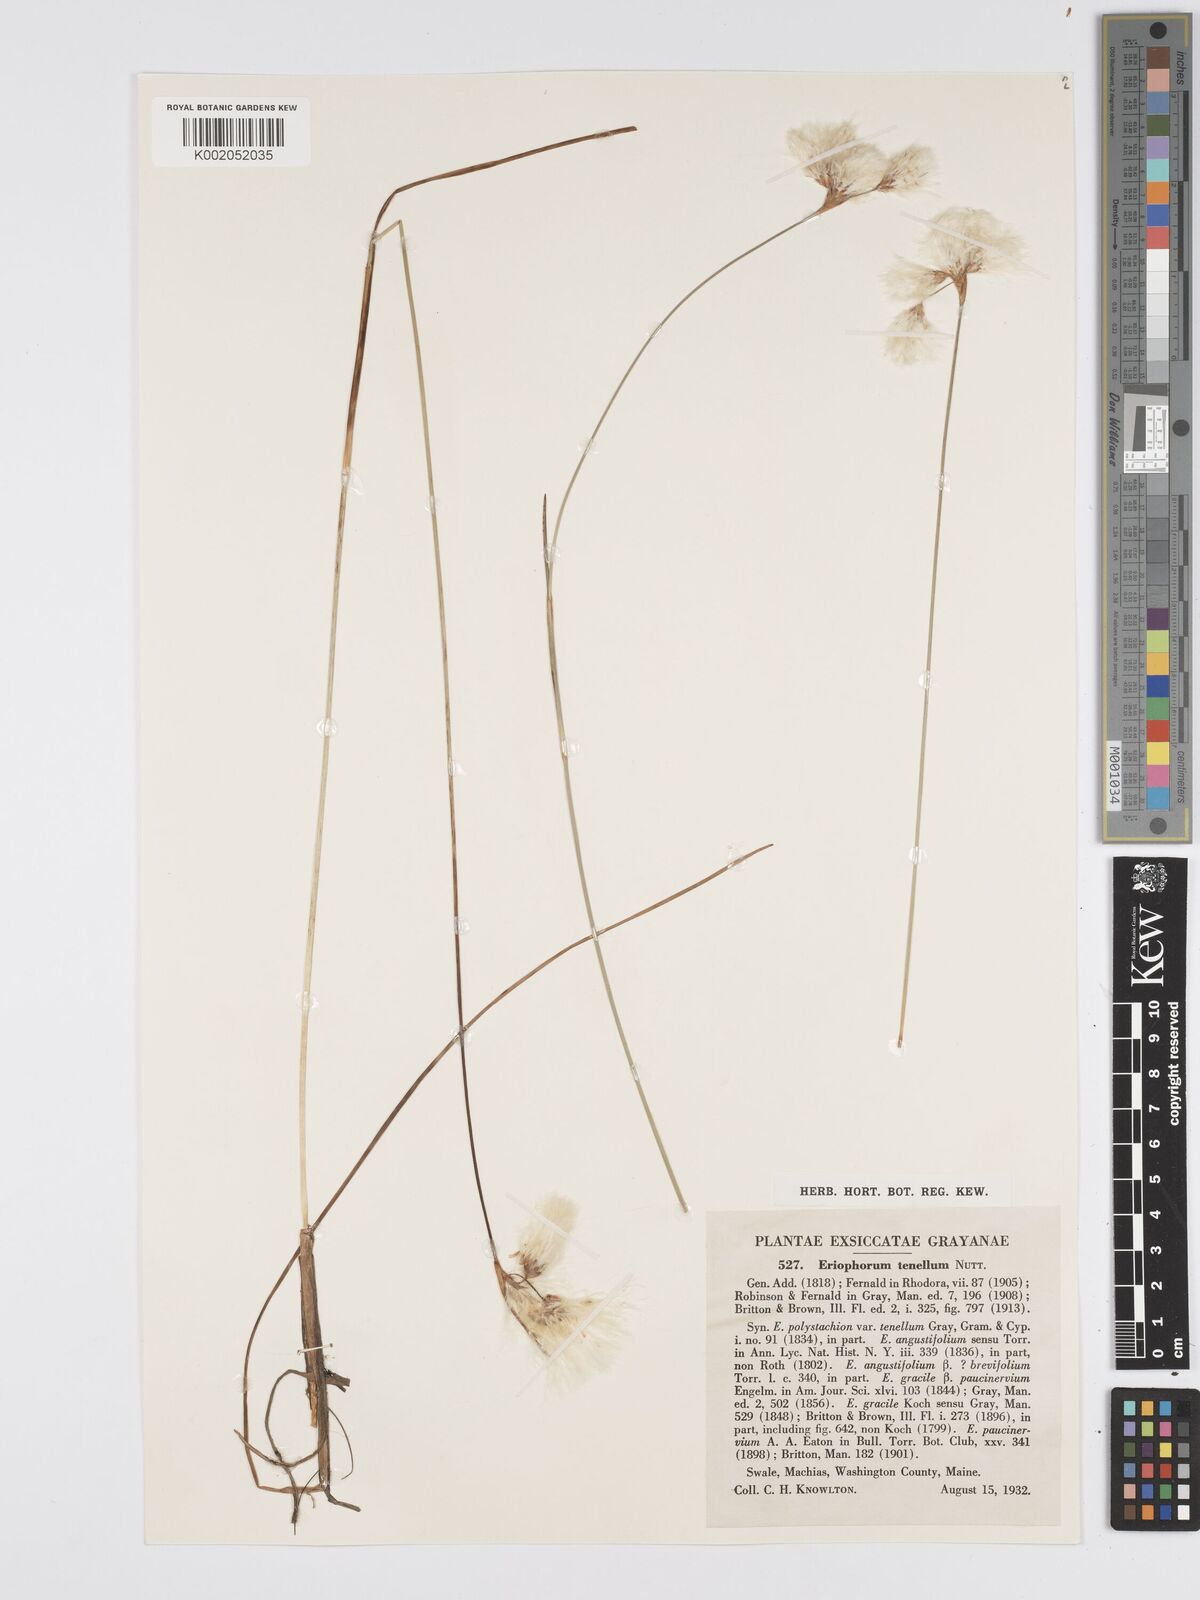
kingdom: Plantae
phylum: Tracheophyta
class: Liliopsida
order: Poales
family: Cyperaceae
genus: Eriophorum
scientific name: Eriophorum tenellum
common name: Few-nerved cottongrass
